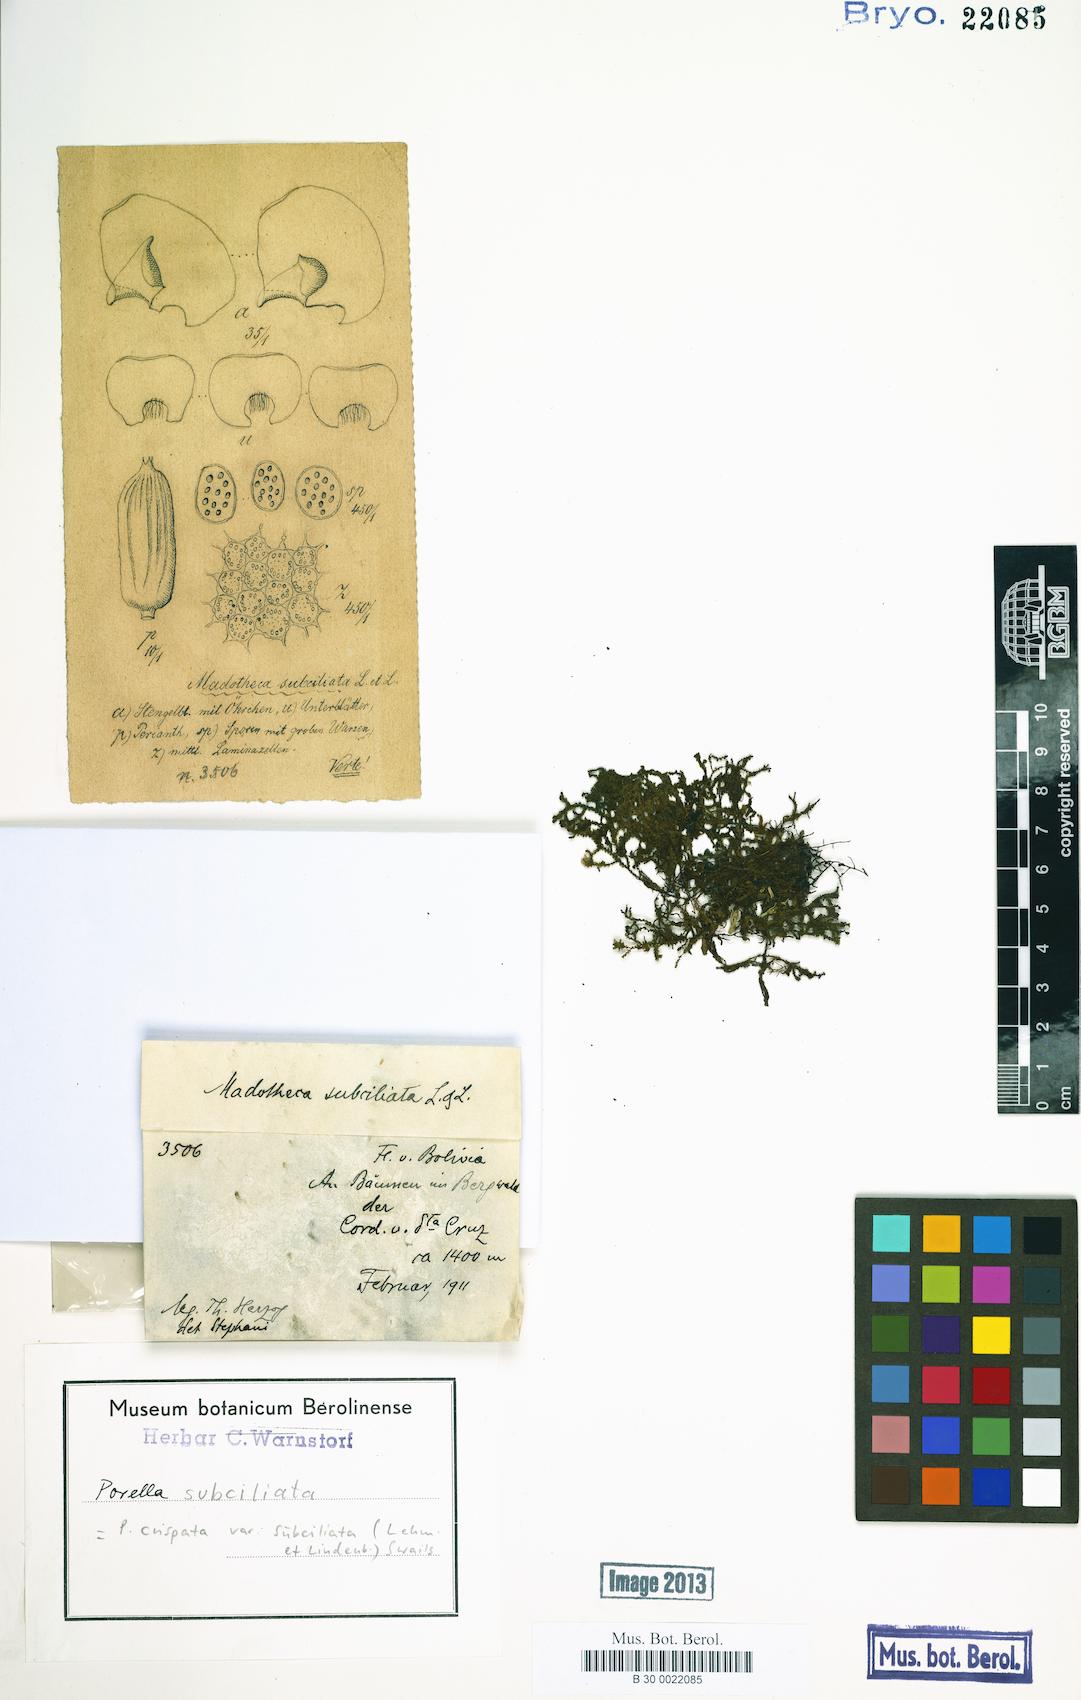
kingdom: Plantae
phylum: Marchantiophyta
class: Jungermanniopsida
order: Porellales
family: Porellaceae
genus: Porella
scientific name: Porella crispata
